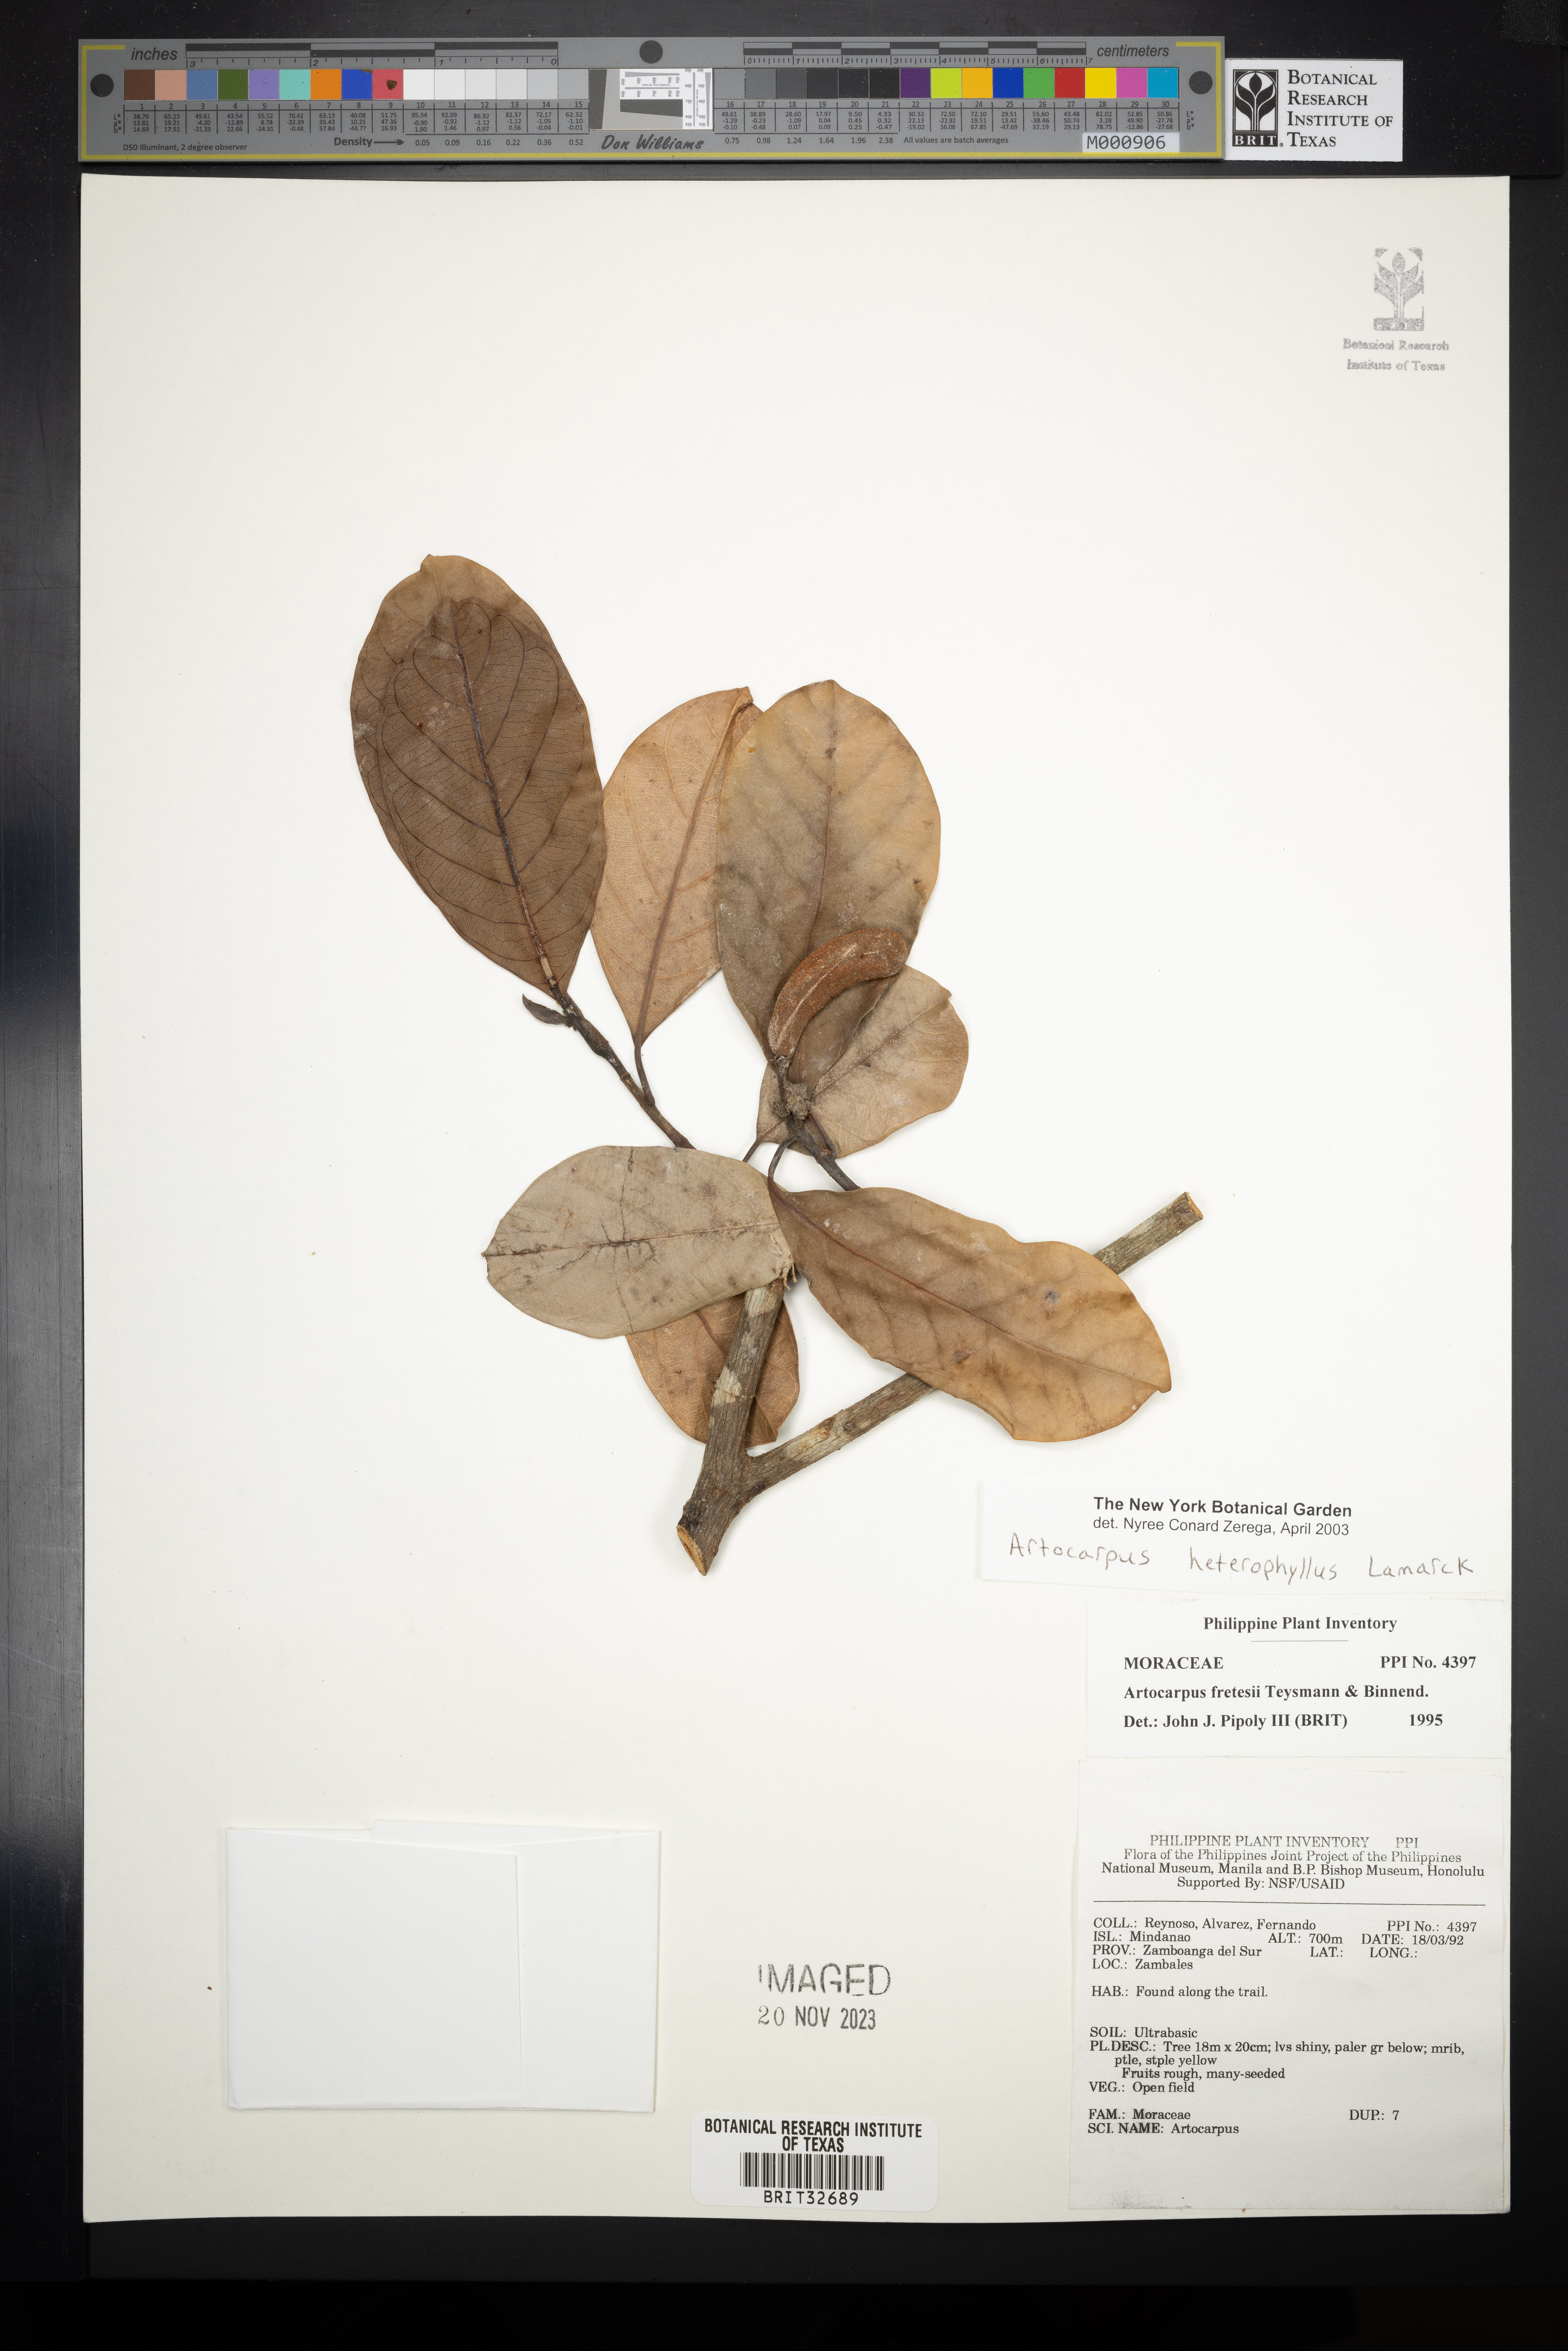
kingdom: Plantae
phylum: Tracheophyta
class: Magnoliopsida
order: Rosales
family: Moraceae
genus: Artocarpus
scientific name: Artocarpus heterophyllus
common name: Jackfruit
